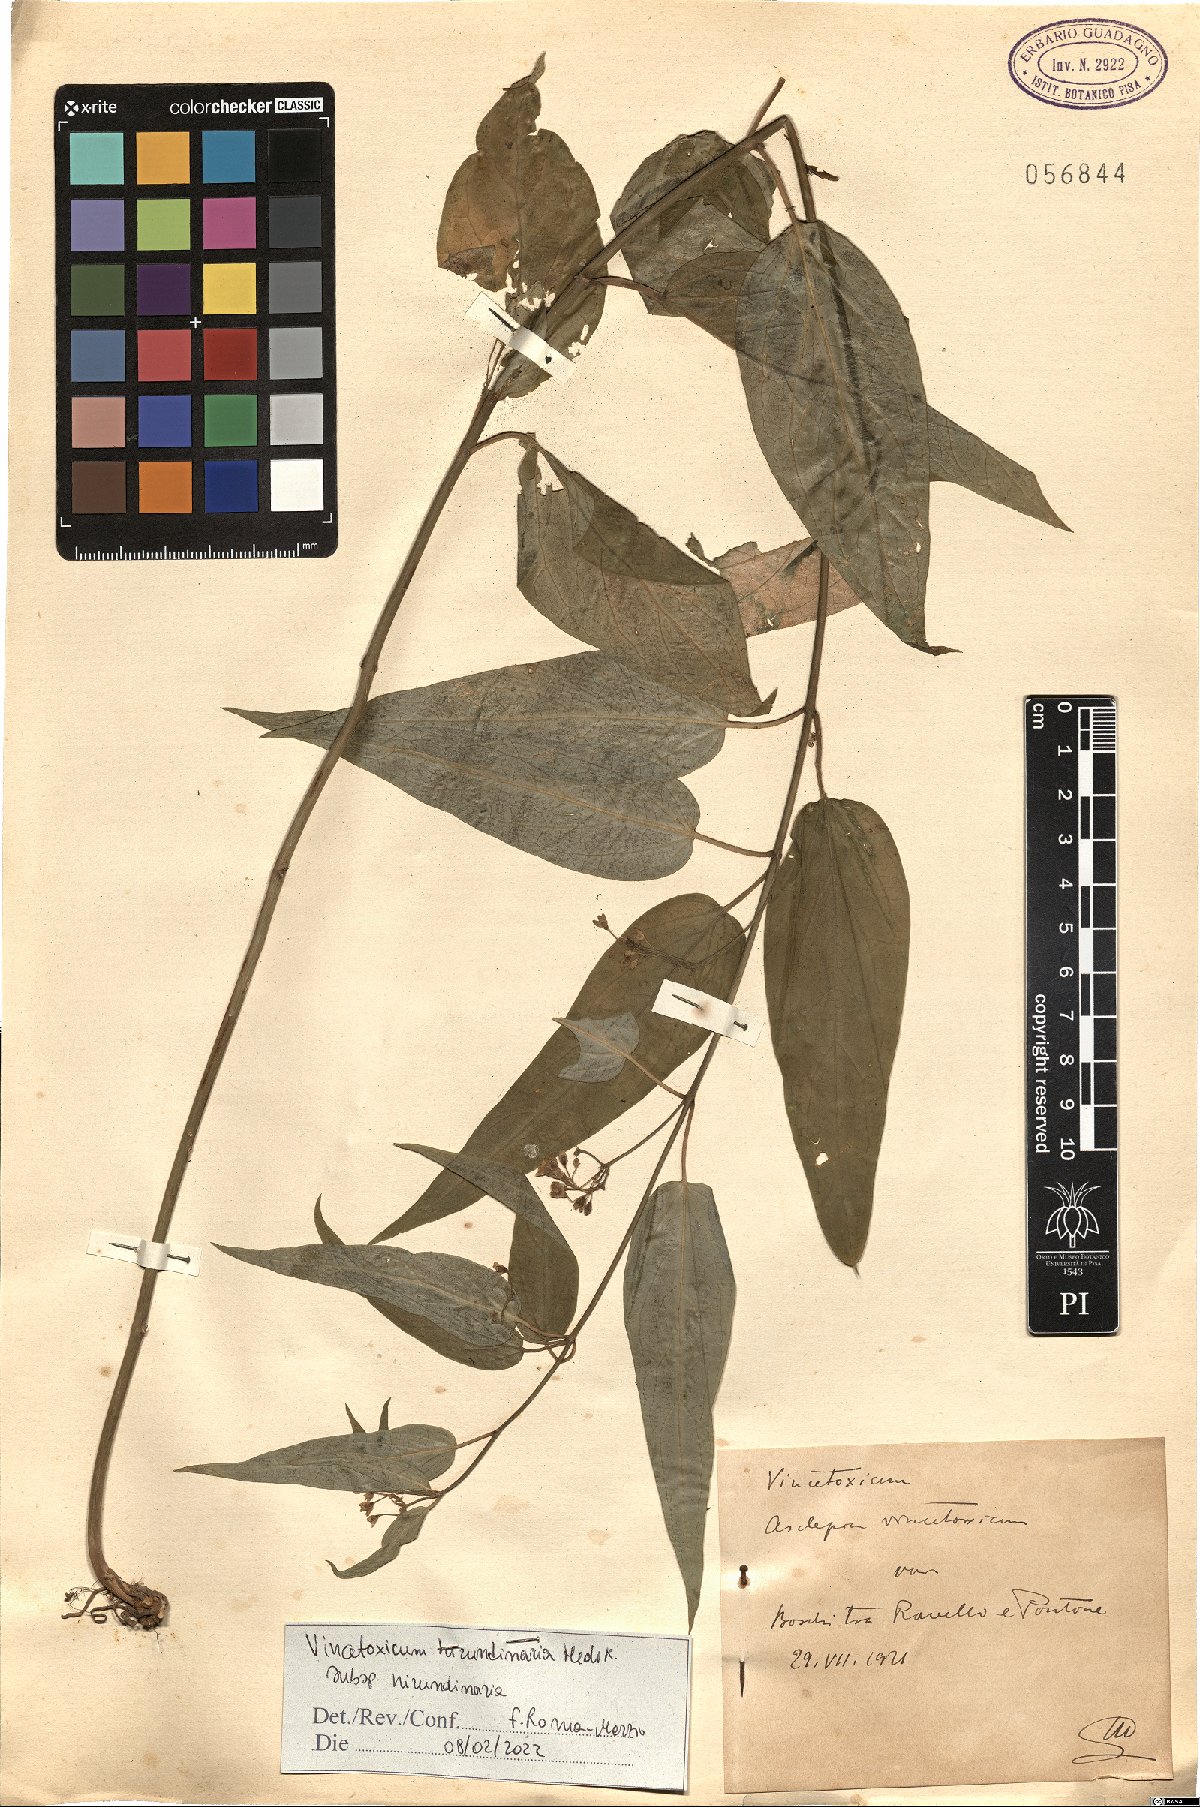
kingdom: Plantae
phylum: Tracheophyta
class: Magnoliopsida
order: Gentianales
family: Apocynaceae
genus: Vincetoxicum
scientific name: Vincetoxicum hirundinaria
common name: White swallowwort
